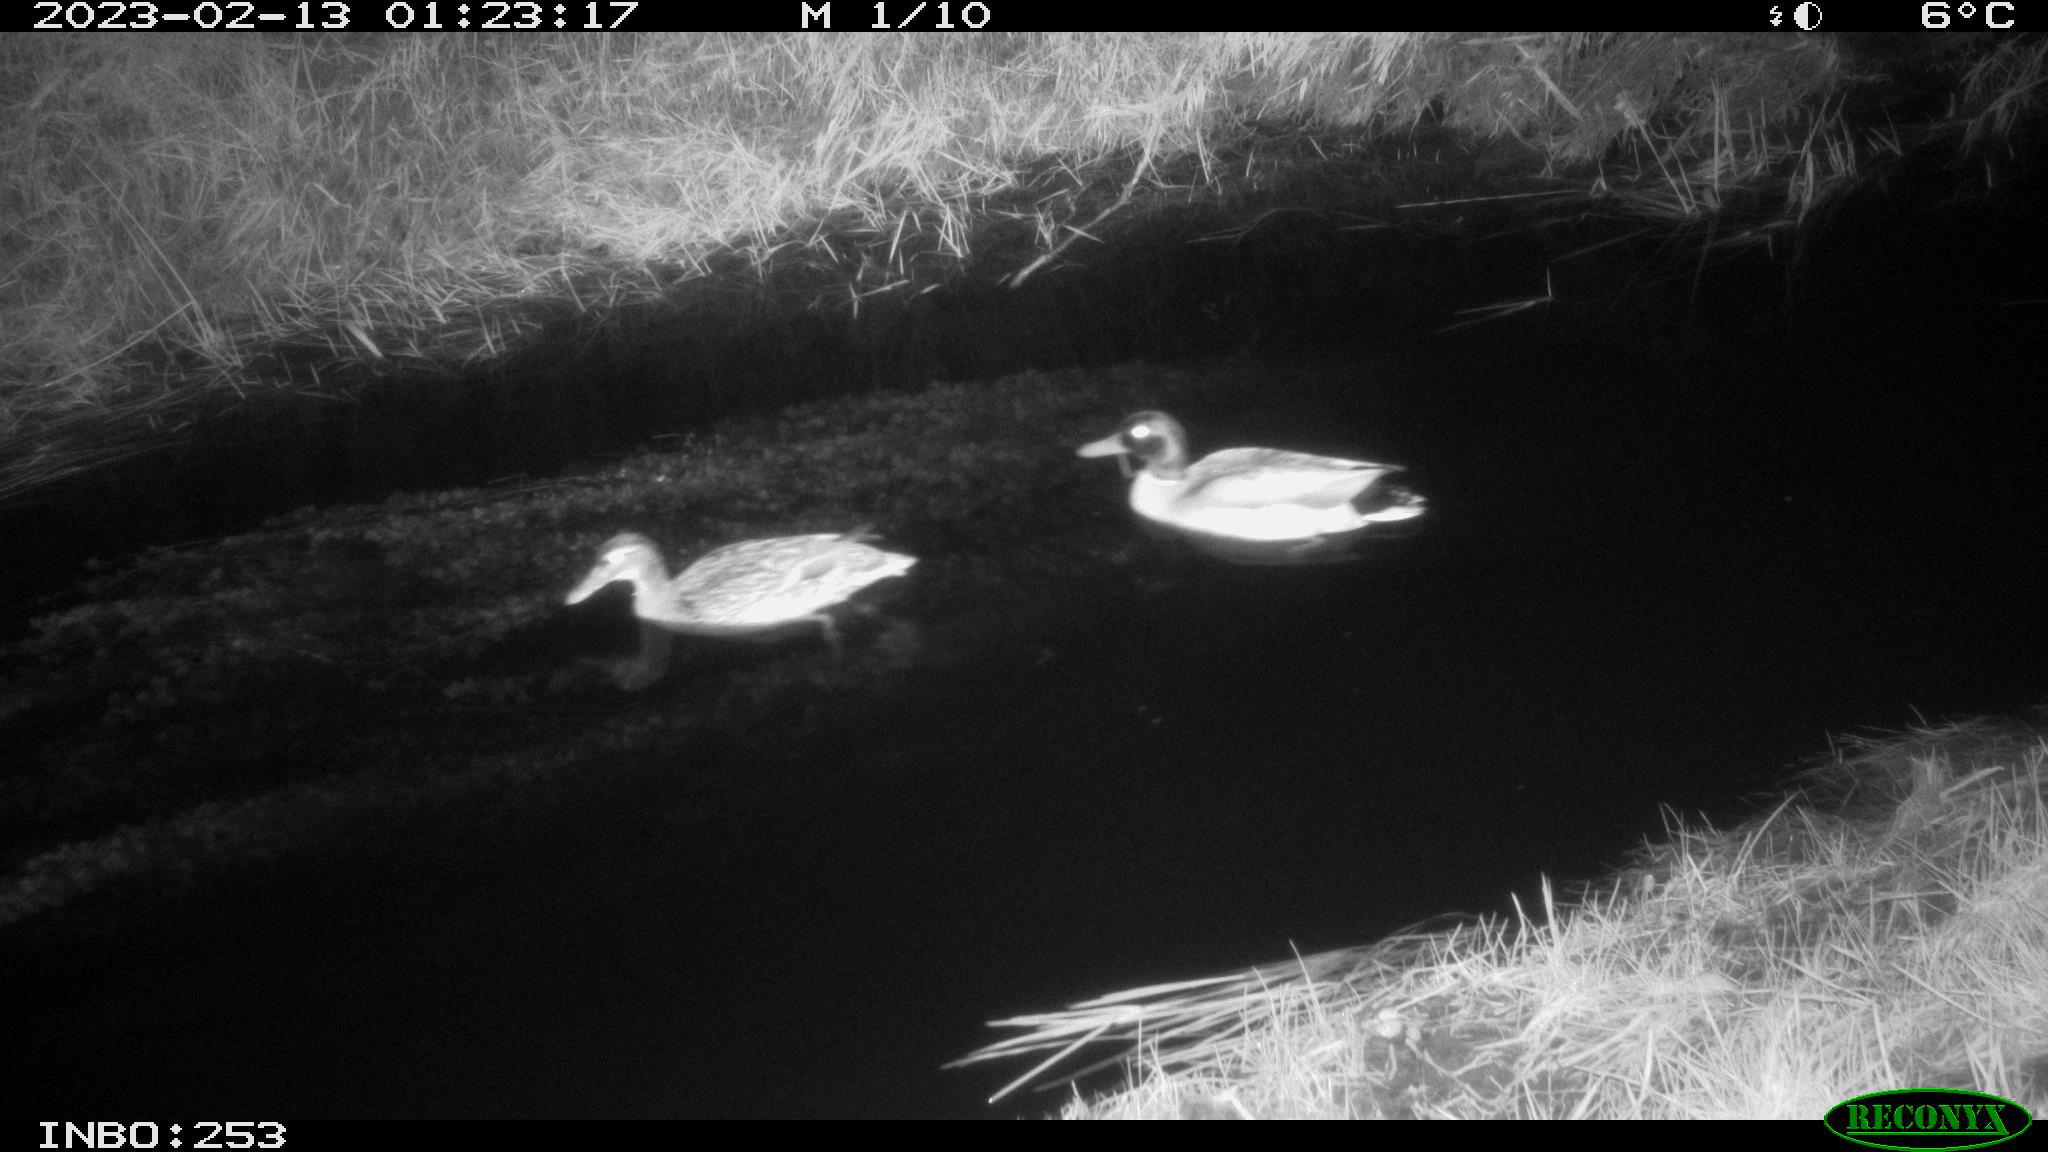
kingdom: Animalia
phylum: Chordata
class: Aves
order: Anseriformes
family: Anatidae
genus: Anas
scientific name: Anas
